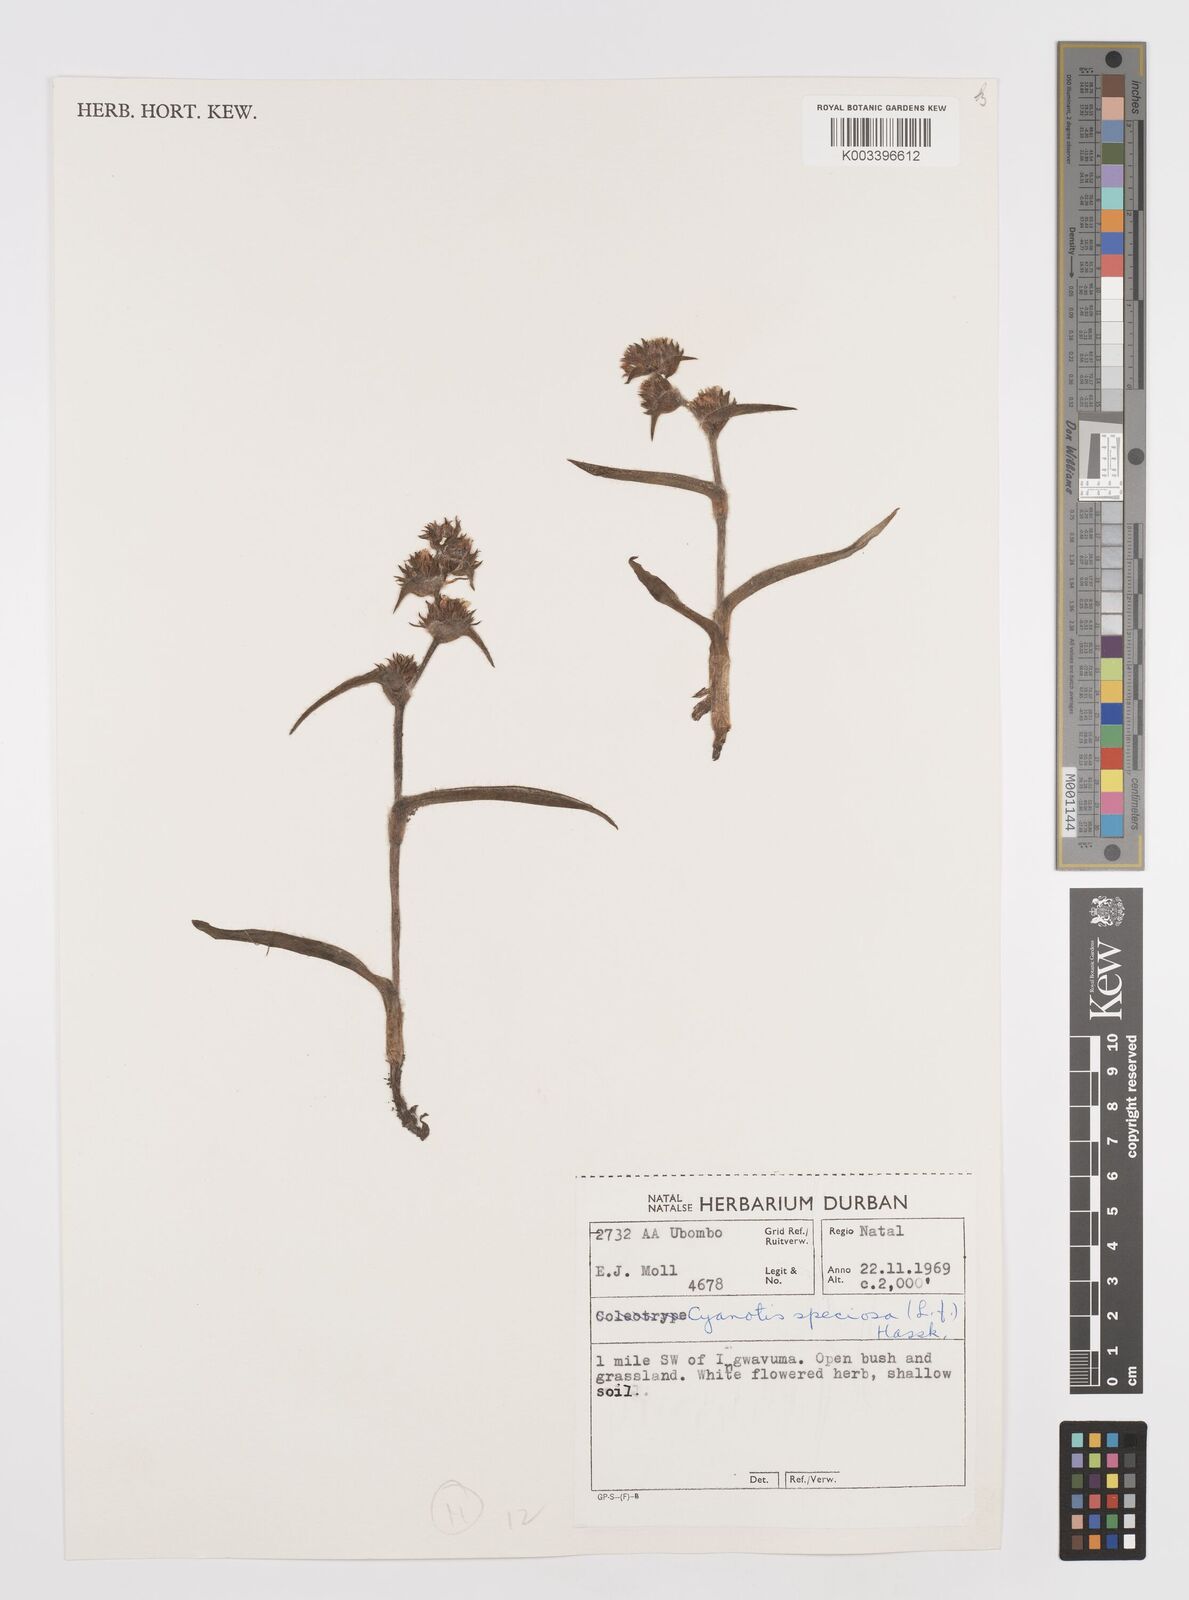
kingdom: Plantae
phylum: Tracheophyta
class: Liliopsida
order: Commelinales
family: Commelinaceae
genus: Cyanotis
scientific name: Cyanotis speciosa
